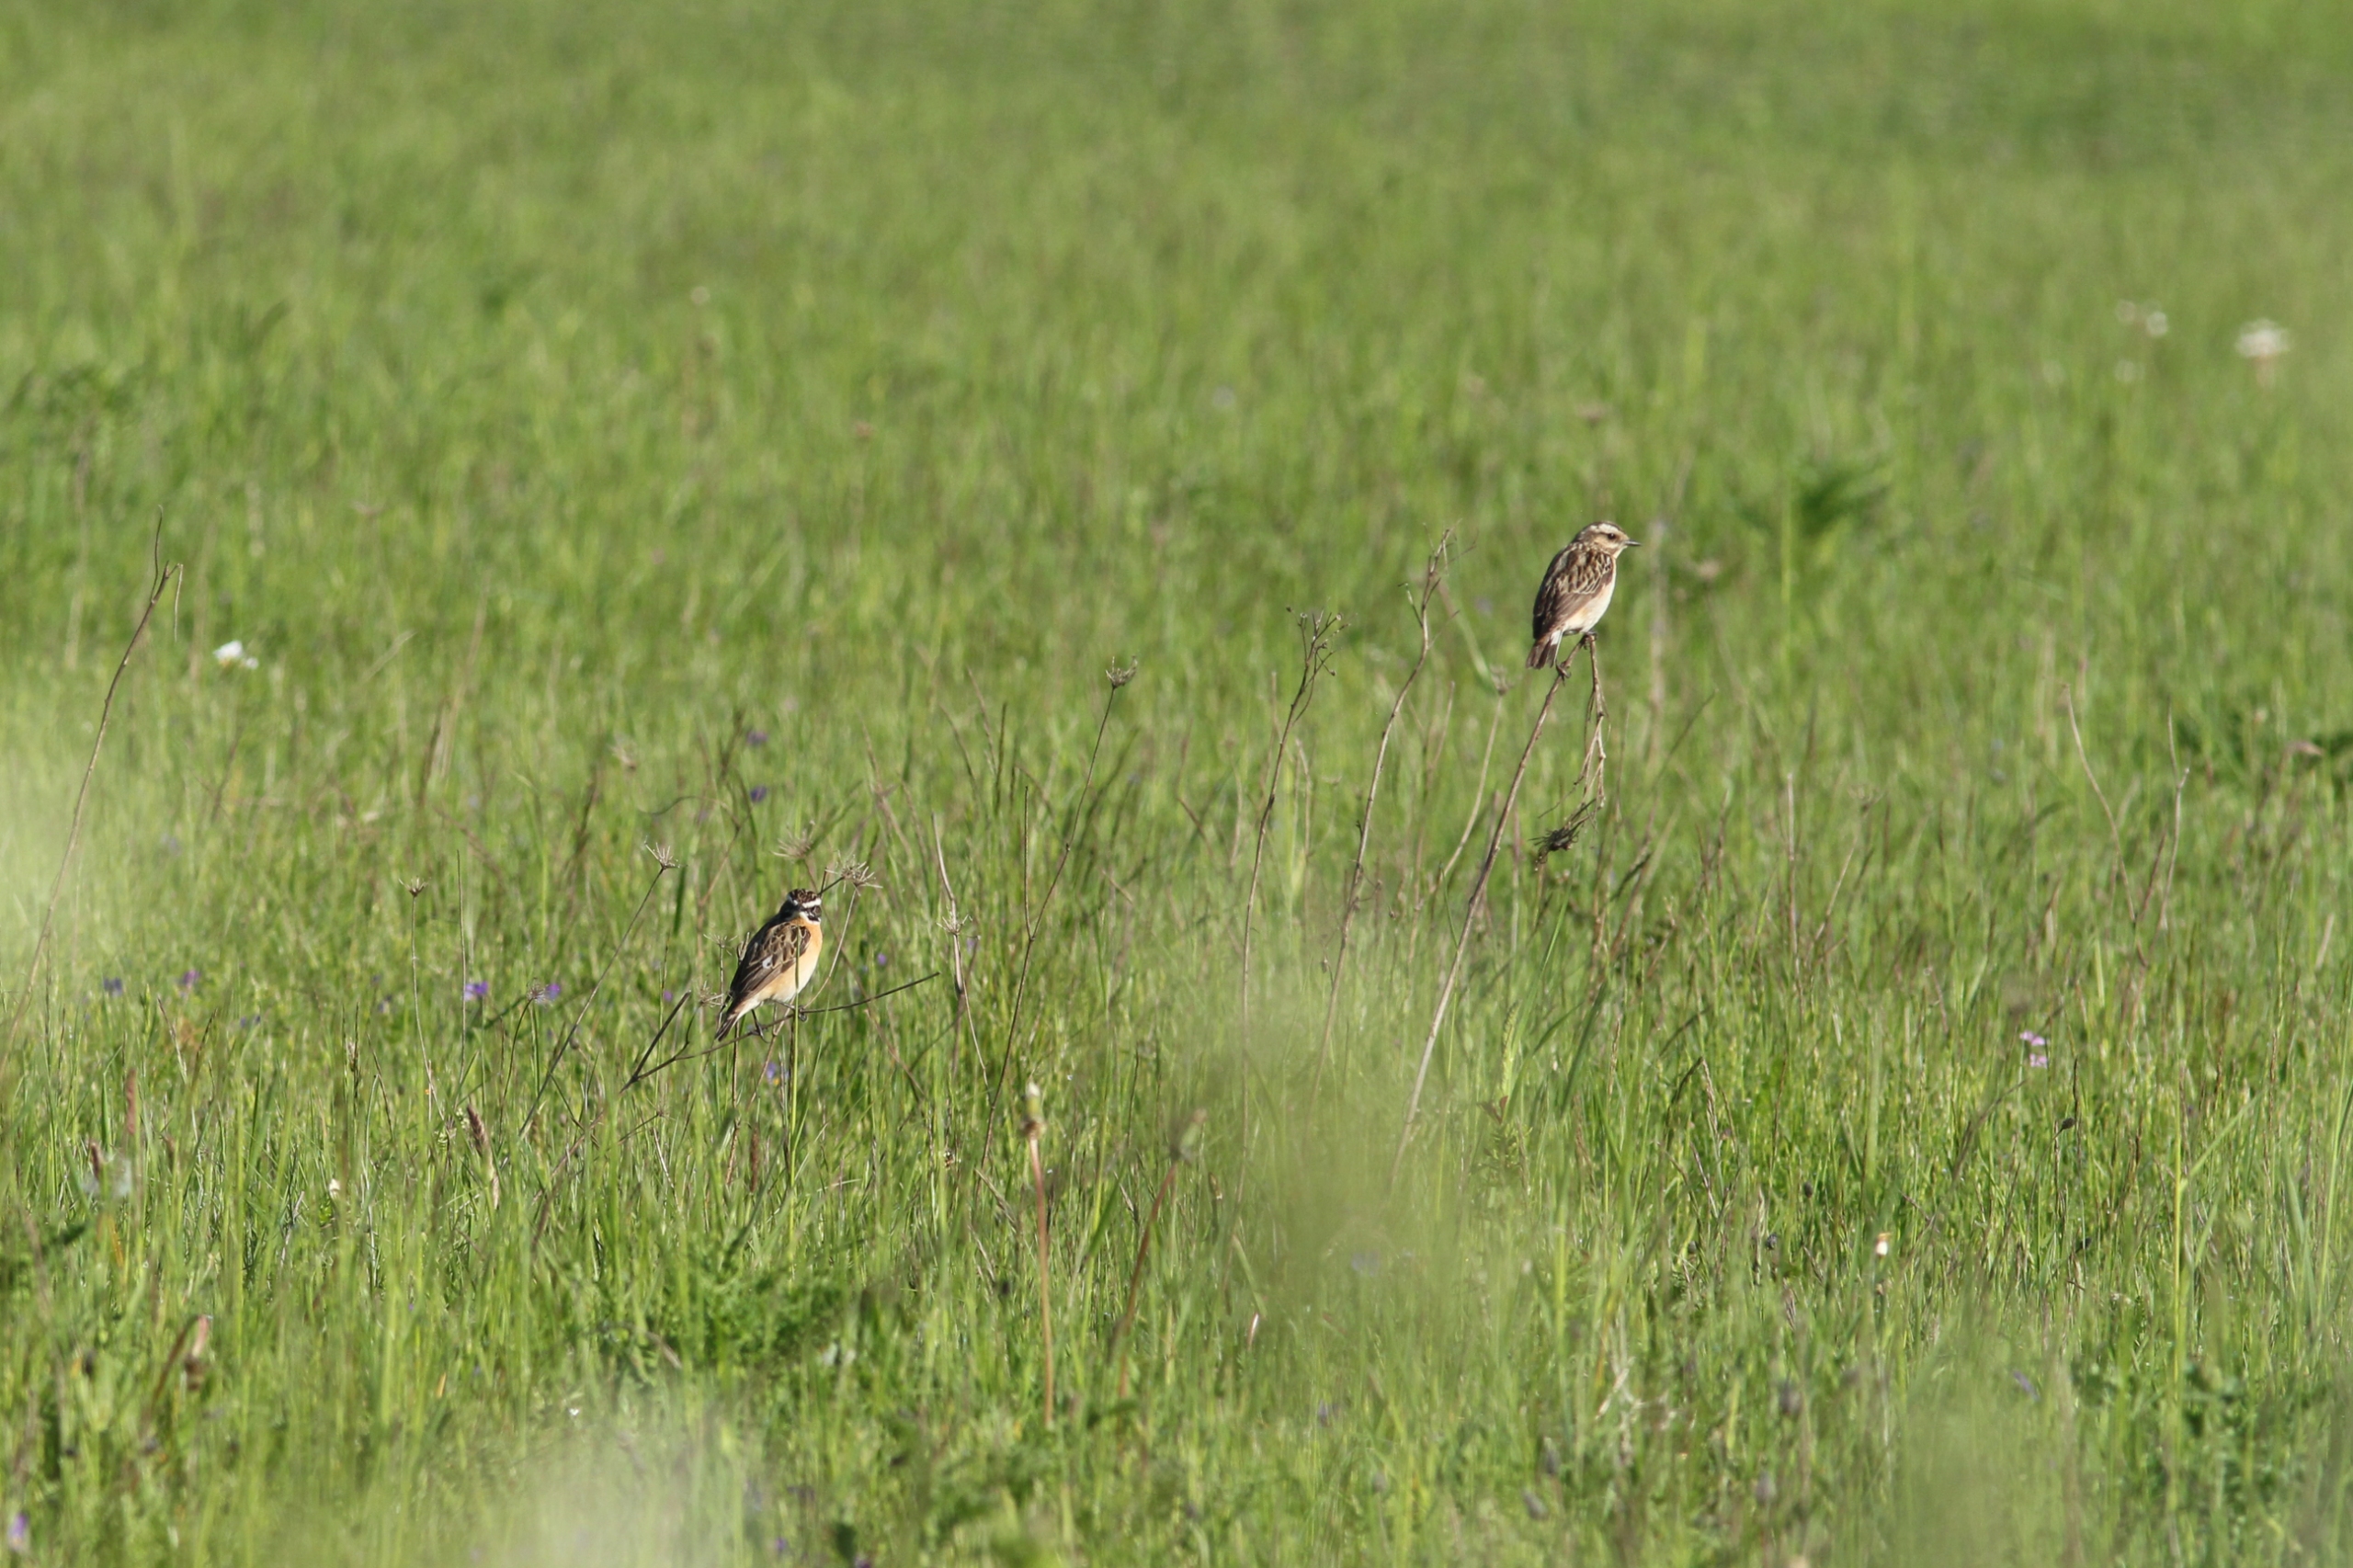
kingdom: Animalia
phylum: Chordata
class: Aves
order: Passeriformes
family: Muscicapidae
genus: Saxicola
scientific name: Saxicola rubetra
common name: Bynkefugl
